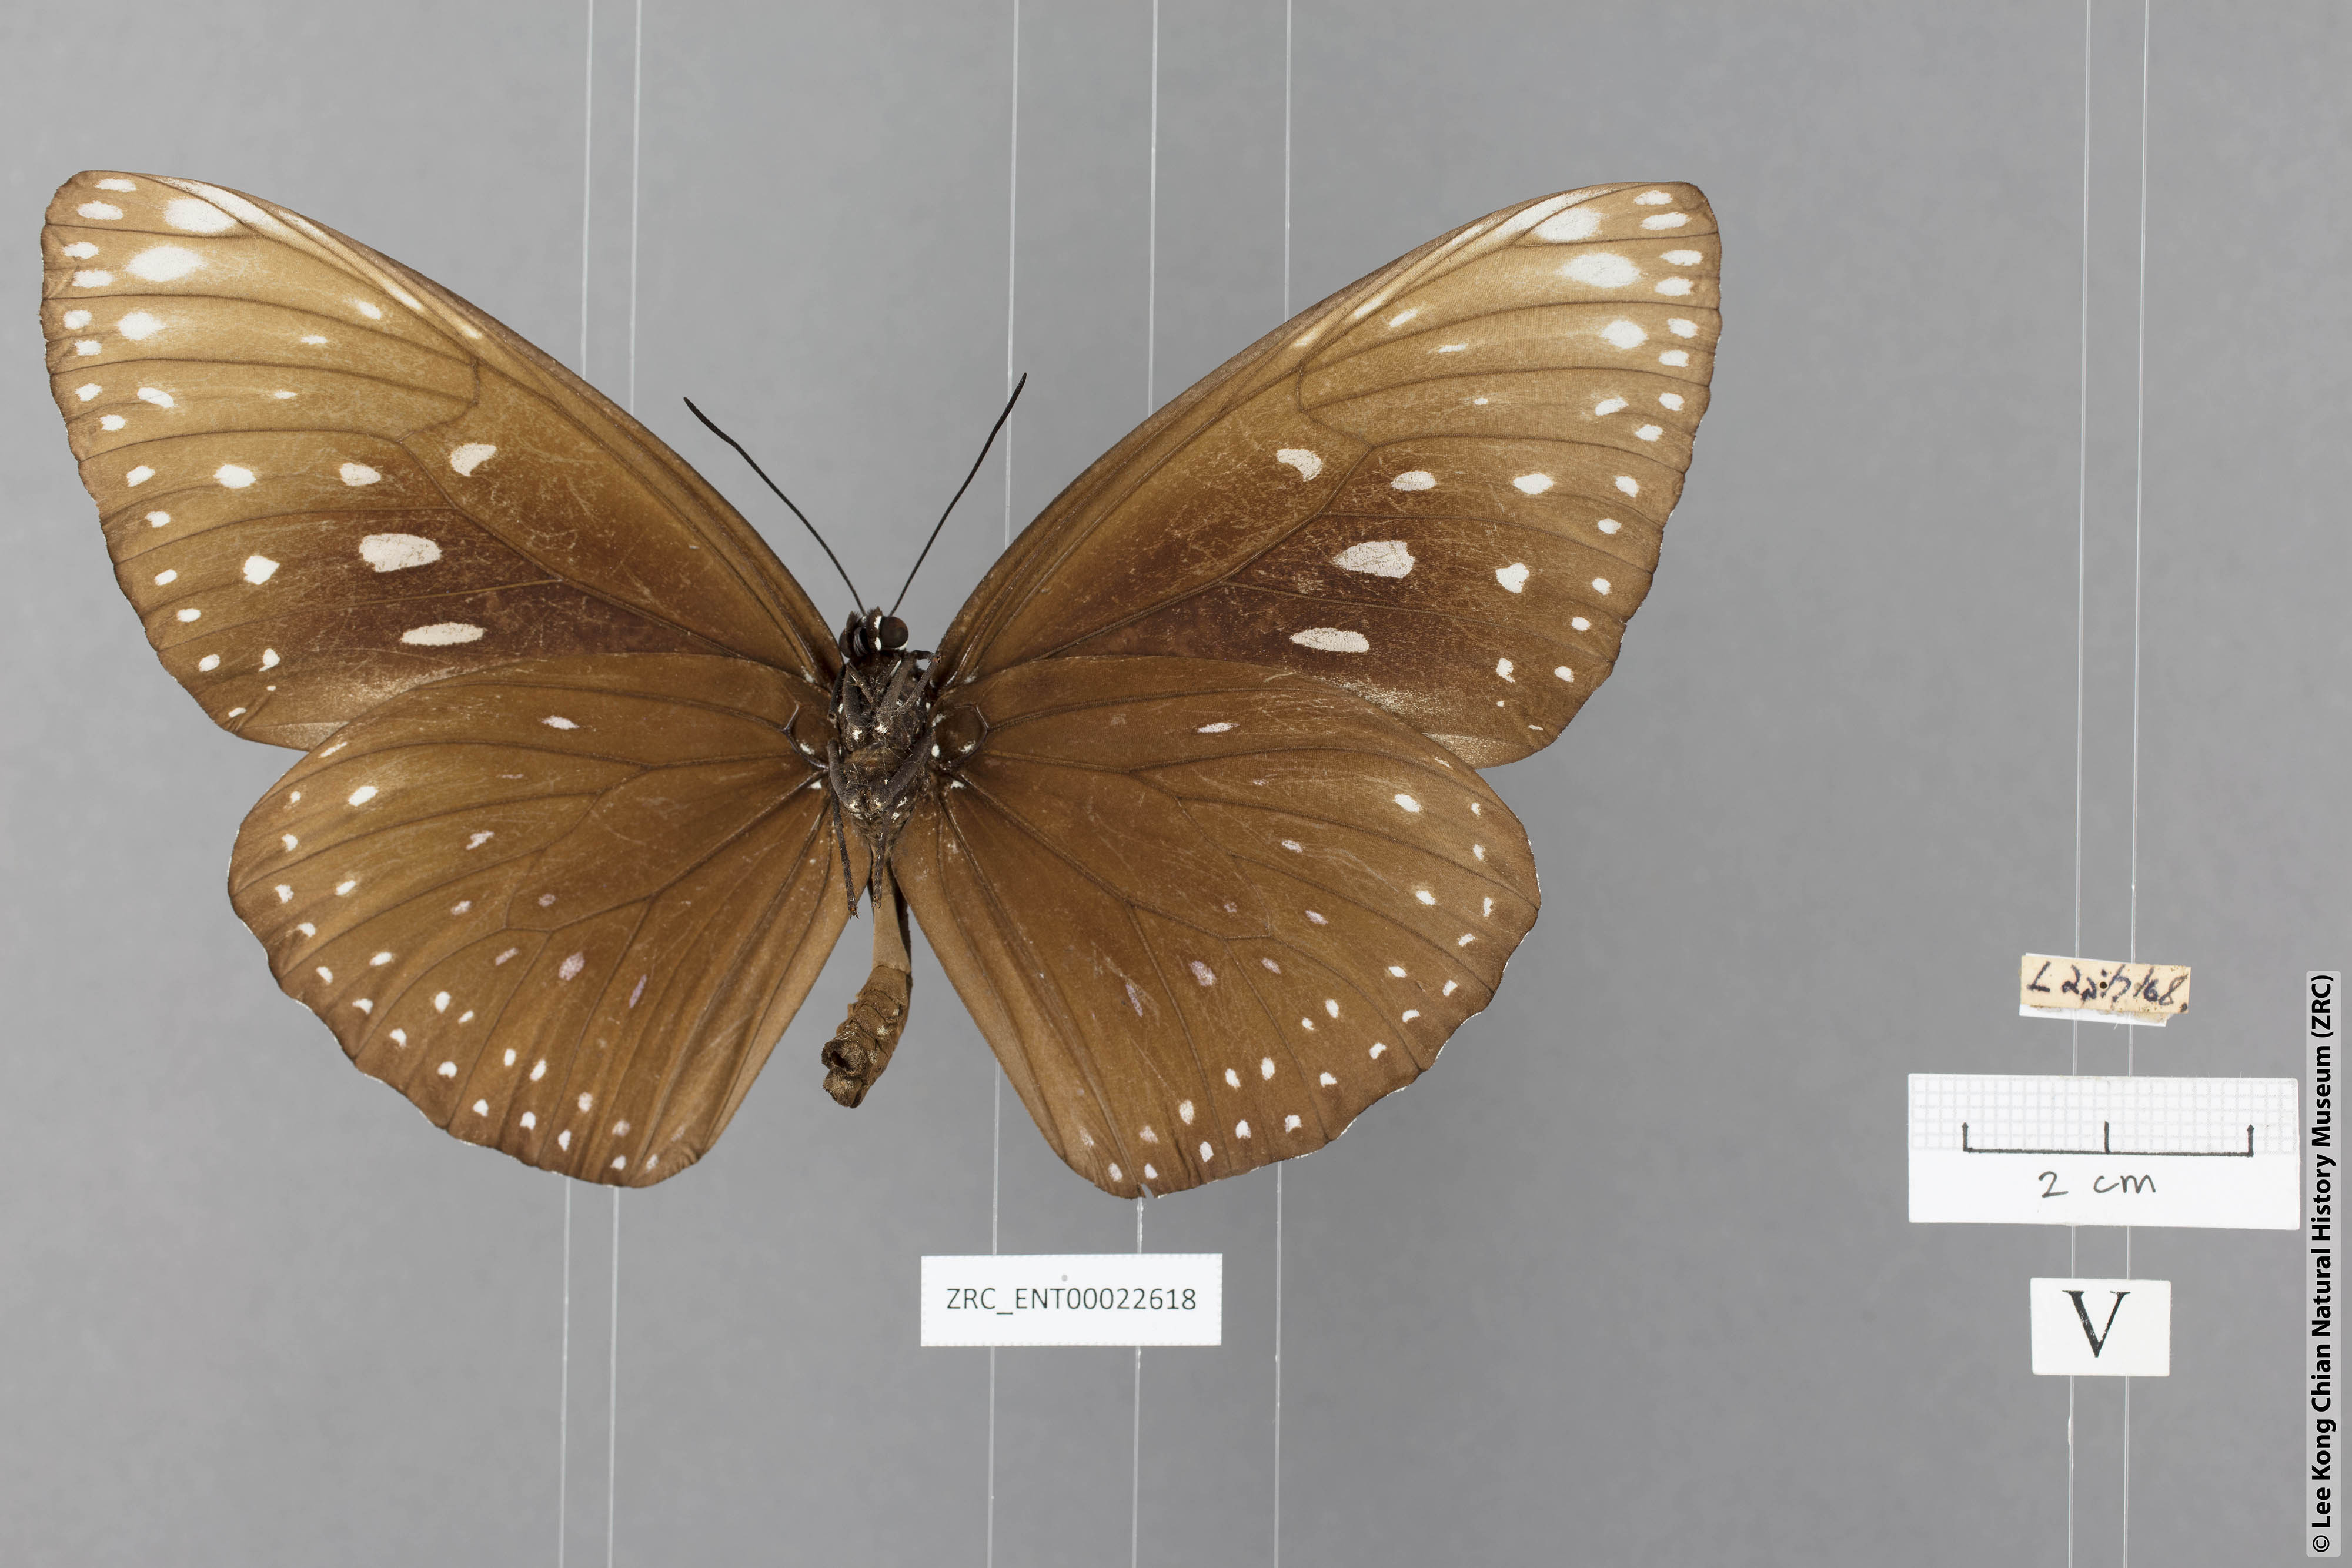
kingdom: Animalia
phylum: Arthropoda
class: Insecta
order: Lepidoptera
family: Nymphalidae
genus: Euploea
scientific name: Euploea phaenareta
